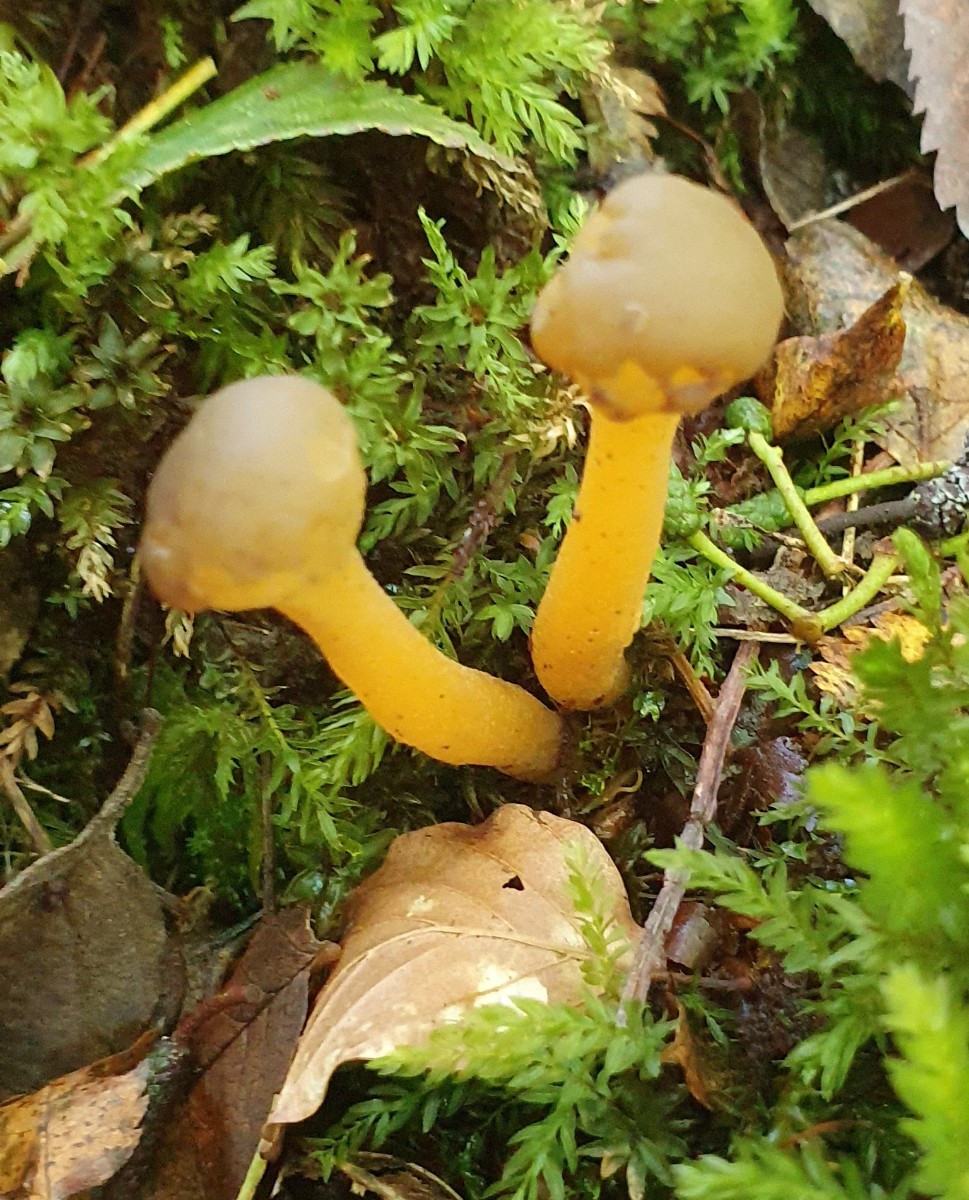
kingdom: Fungi
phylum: Ascomycota
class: Leotiomycetes
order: Leotiales
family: Leotiaceae
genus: Leotia
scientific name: Leotia lubrica
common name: ravsvamp
